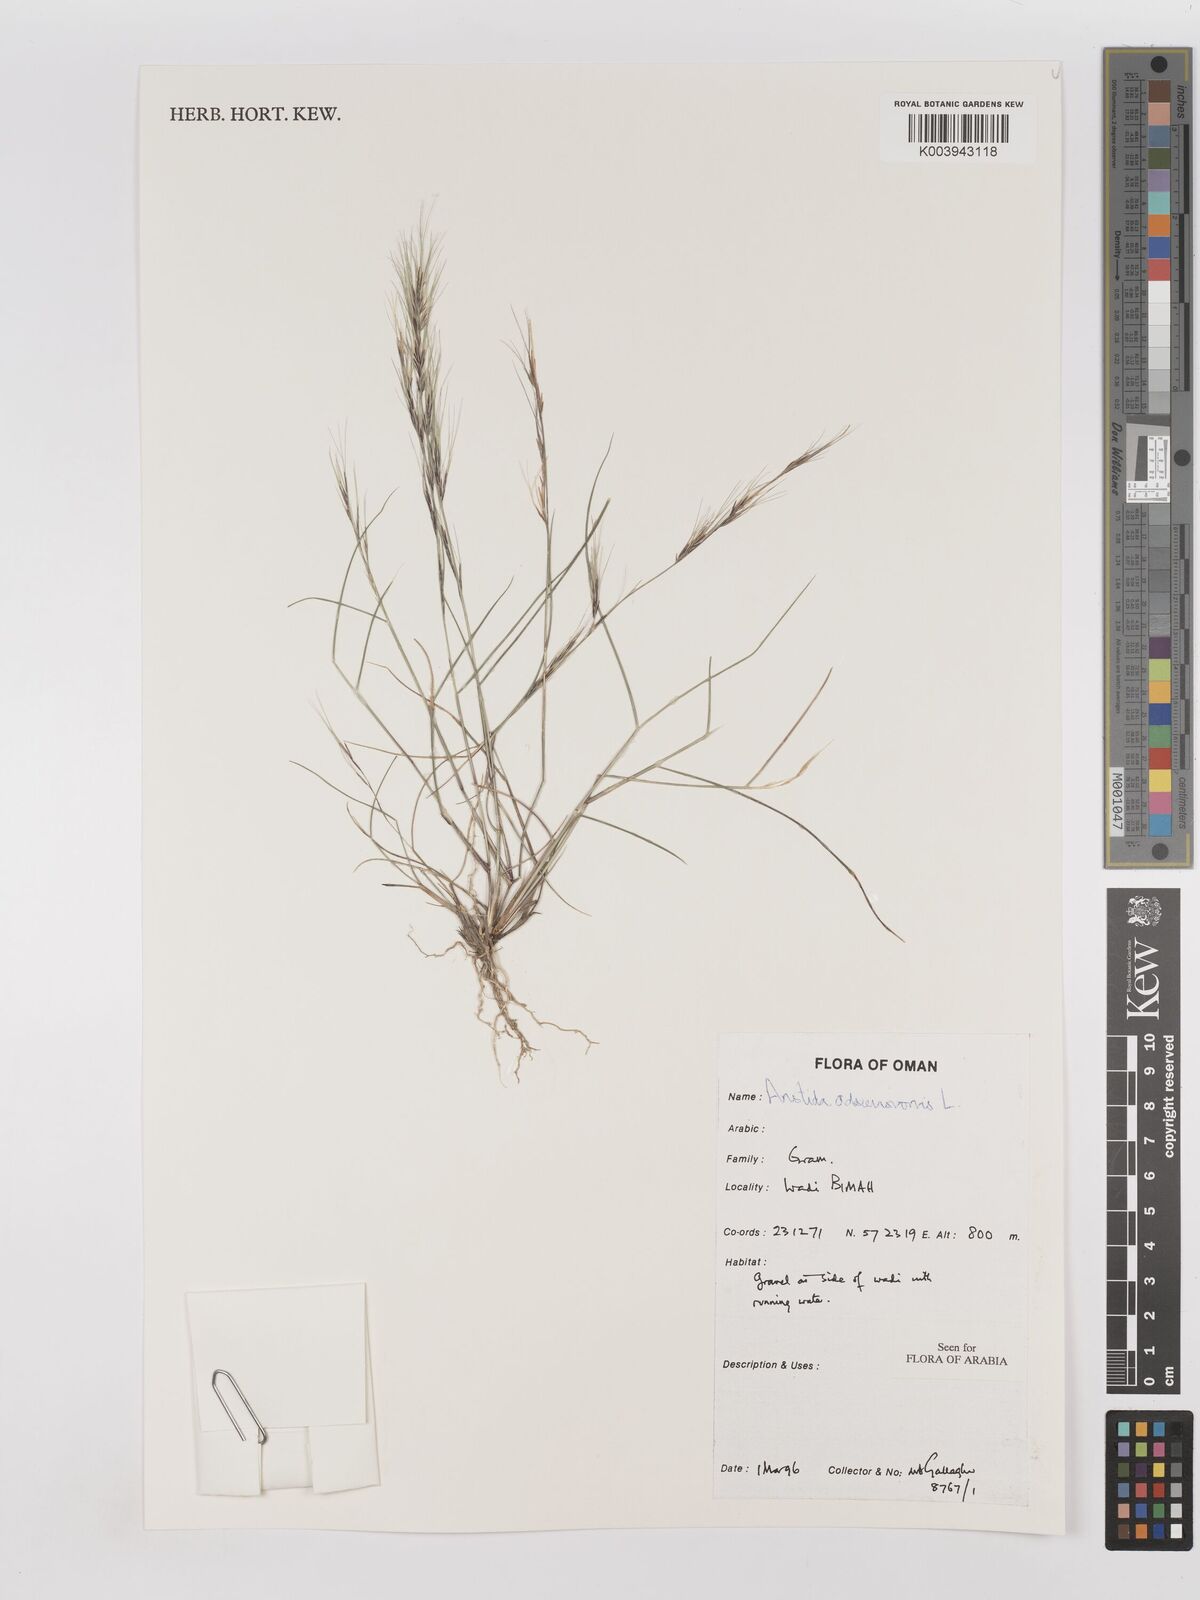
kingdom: Plantae
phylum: Tracheophyta
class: Liliopsida
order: Poales
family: Poaceae
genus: Aristida
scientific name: Aristida adscensionis
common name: Sixweeks threeawn
